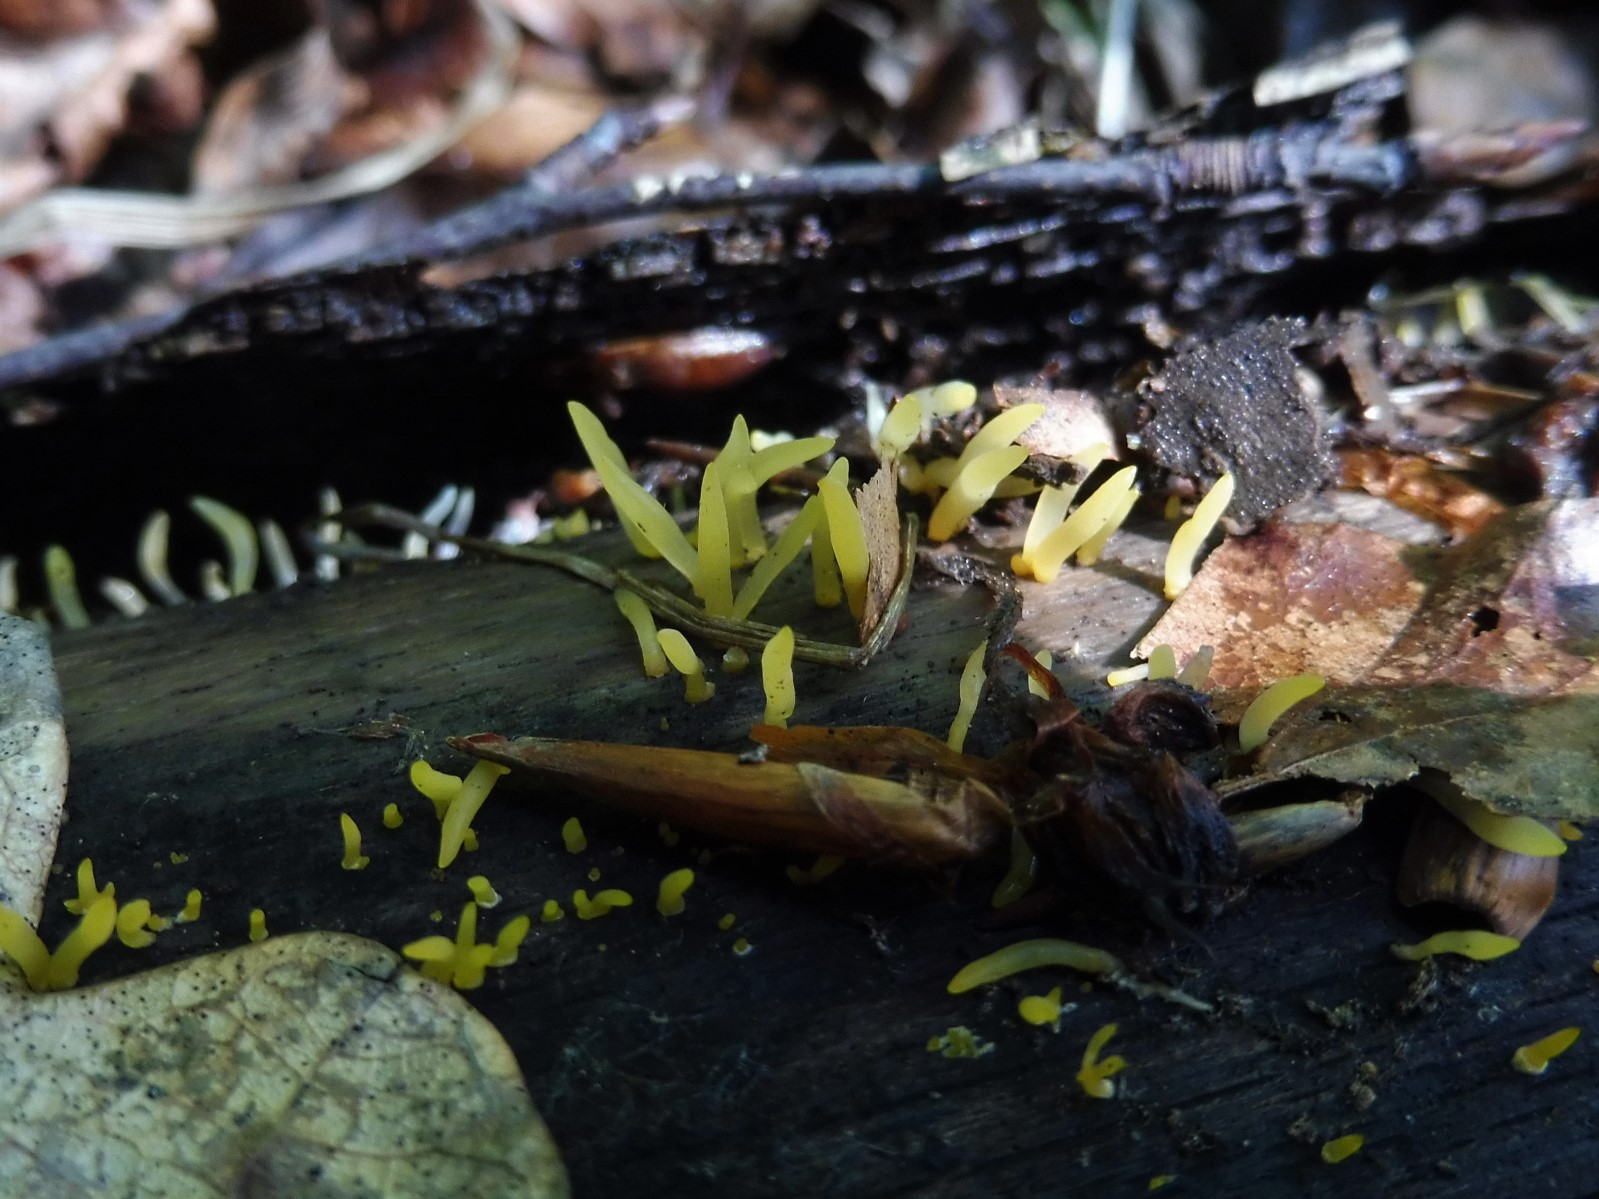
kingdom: Fungi
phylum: Basidiomycota
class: Dacrymycetes
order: Dacrymycetales
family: Dacrymycetaceae
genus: Calocera
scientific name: Calocera cornea
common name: liden guldgaffel
